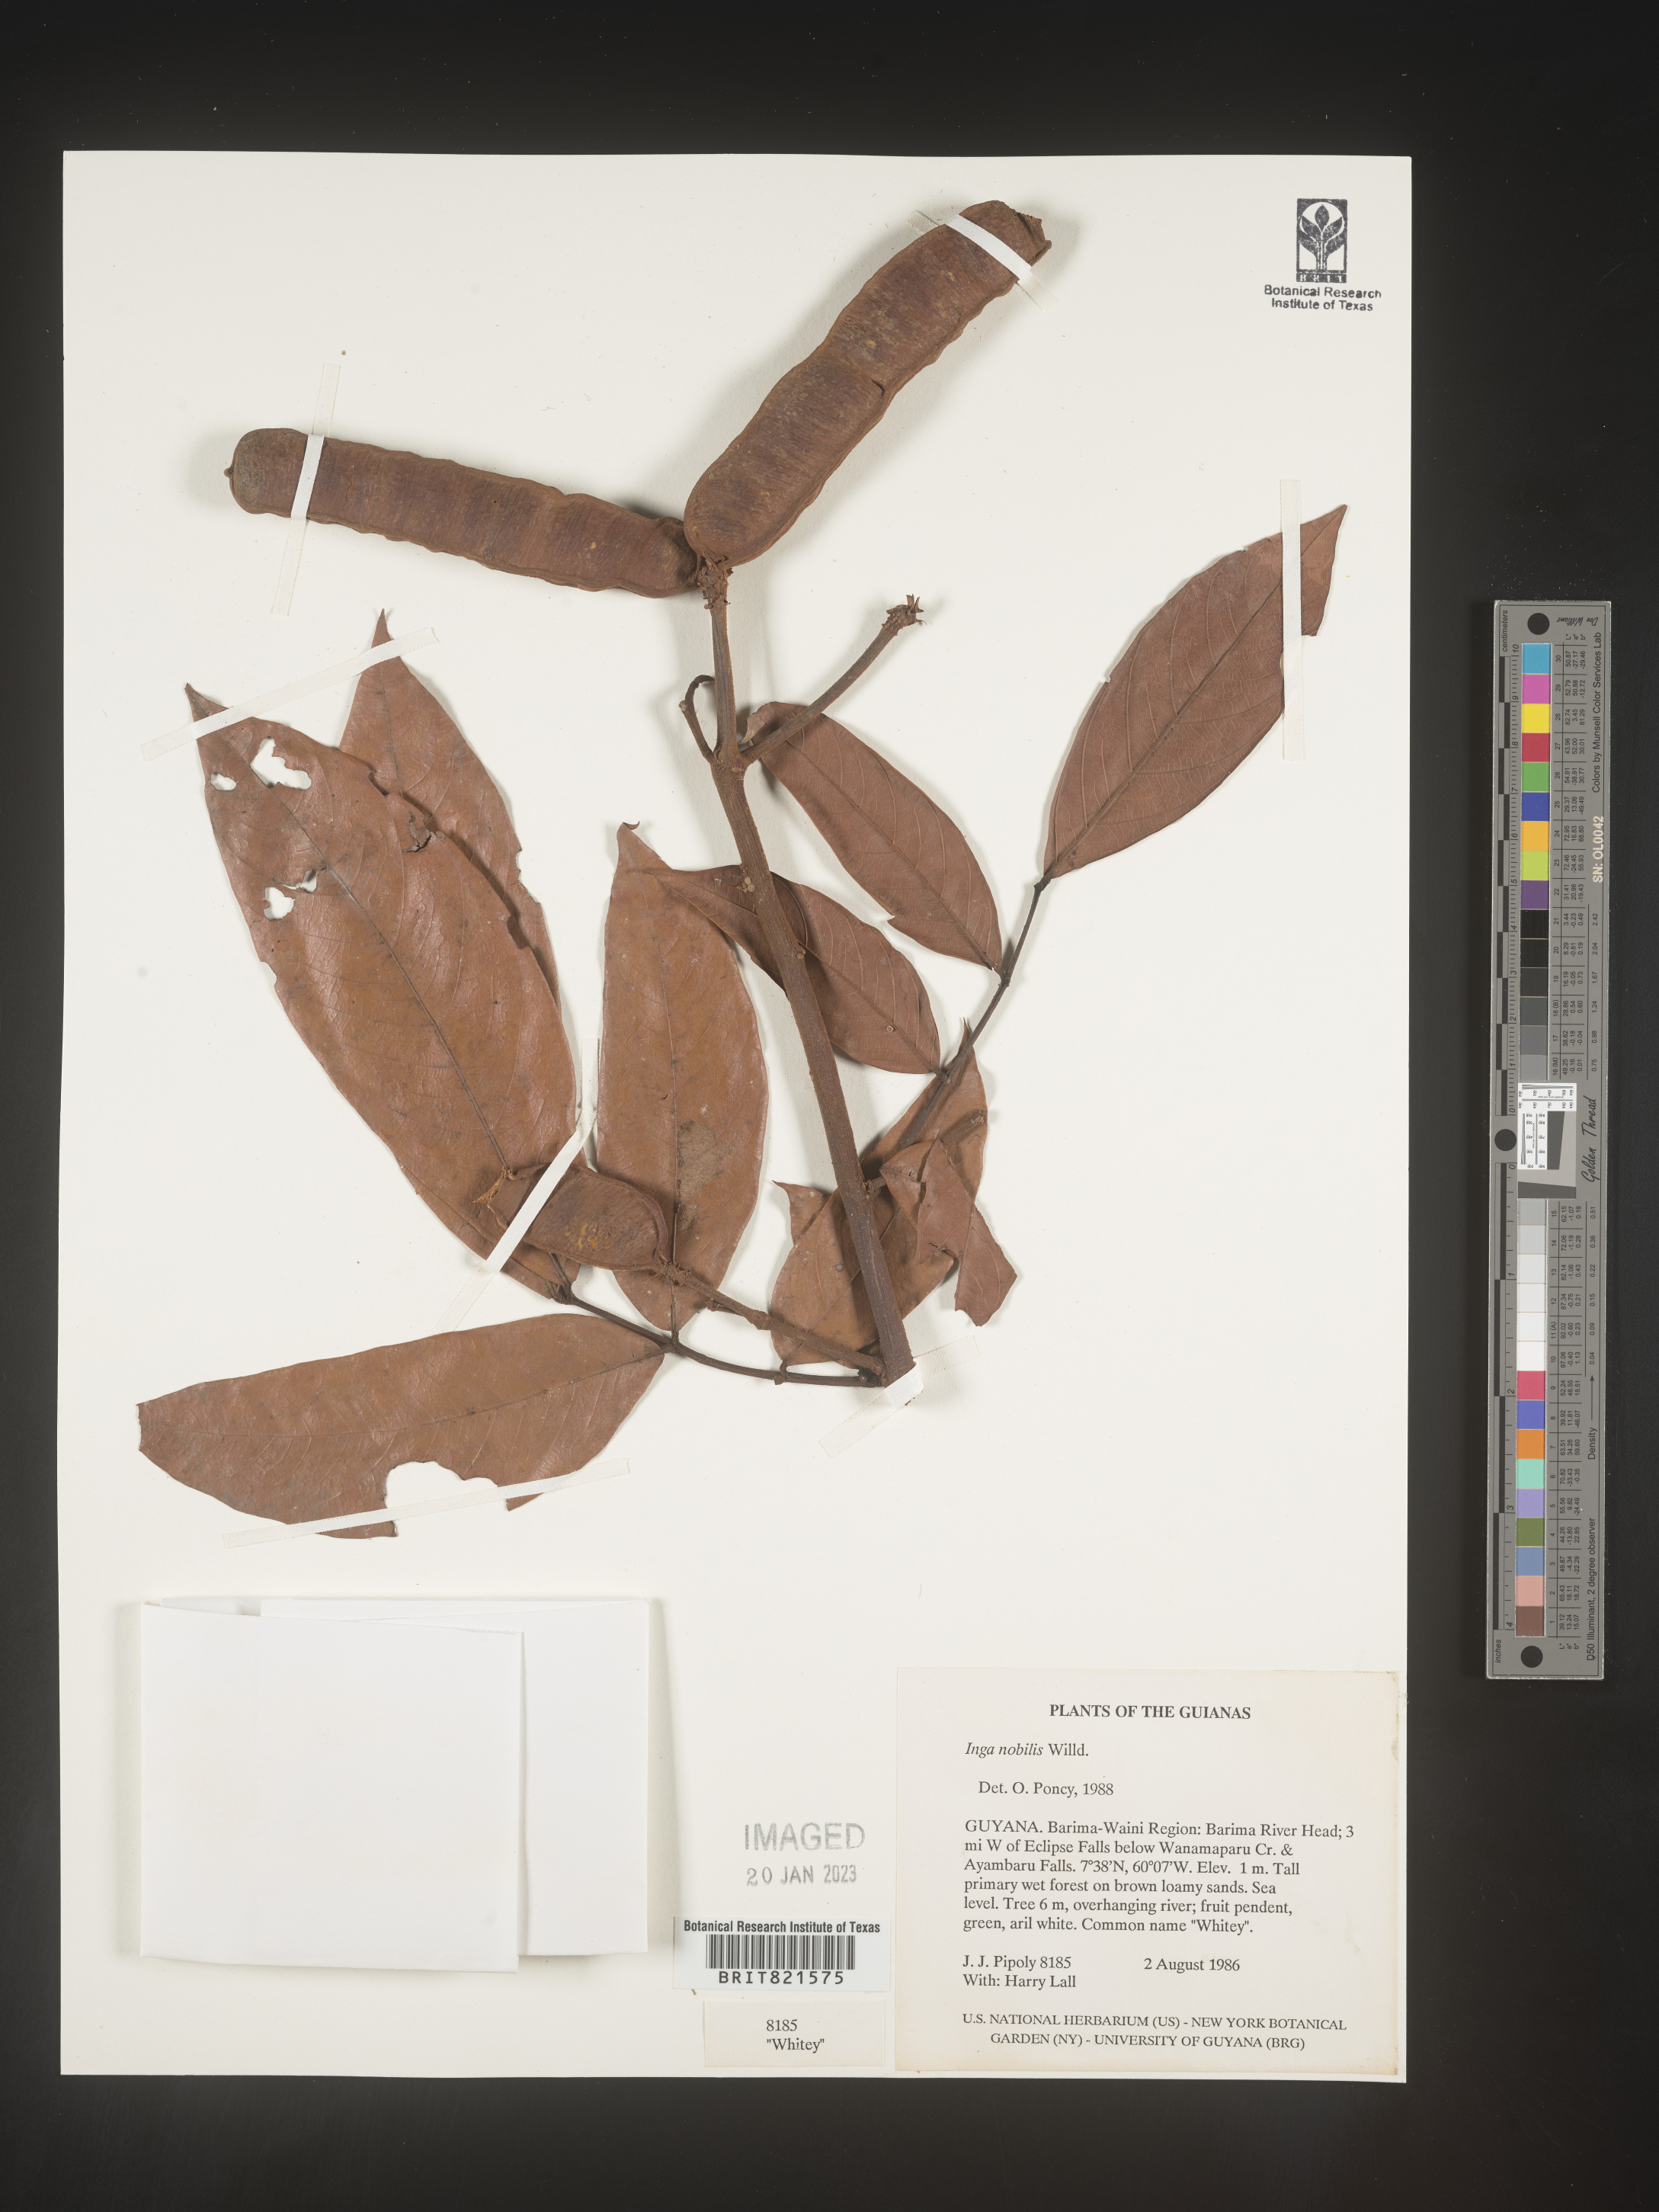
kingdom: Plantae
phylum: Tracheophyta
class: Magnoliopsida
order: Fabales
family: Fabaceae
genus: Inga
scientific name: Inga
